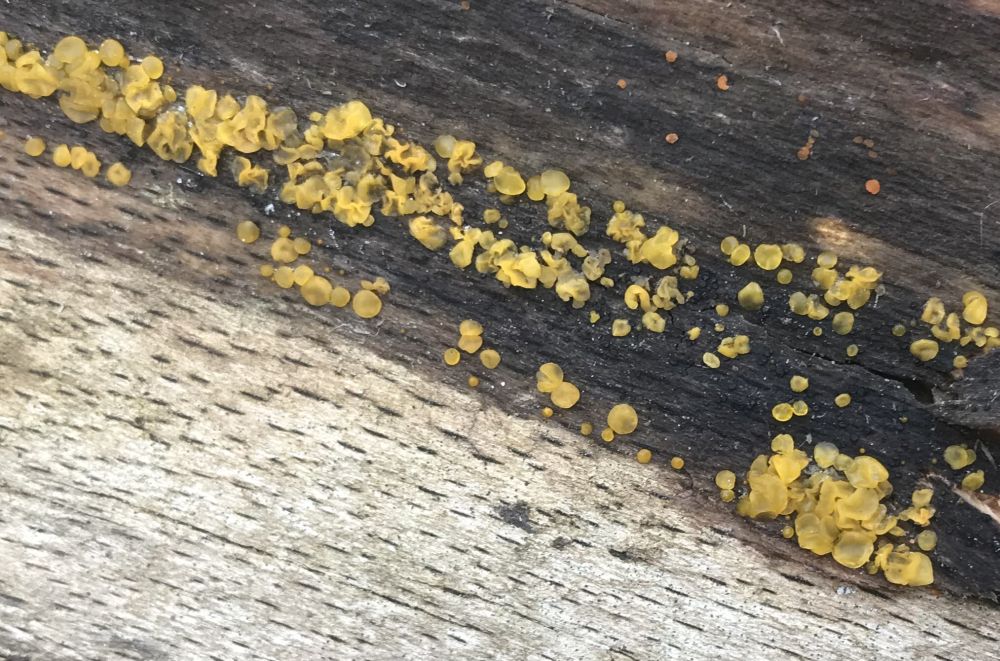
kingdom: Fungi
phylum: Ascomycota
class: Leotiomycetes
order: Helotiales
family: Pezizellaceae
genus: Calycina
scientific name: Calycina
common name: gulskive
